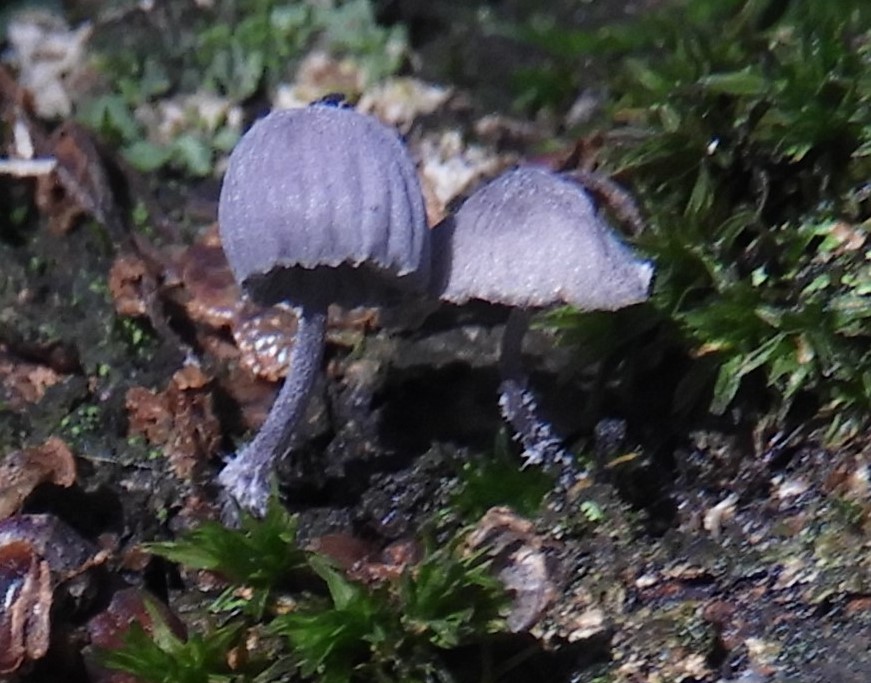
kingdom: Fungi
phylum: Basidiomycota
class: Agaricomycetes
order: Agaricales
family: Mycenaceae
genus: Mycena
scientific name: Mycena pseudocorticola
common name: gråblå bark-huesvamp
